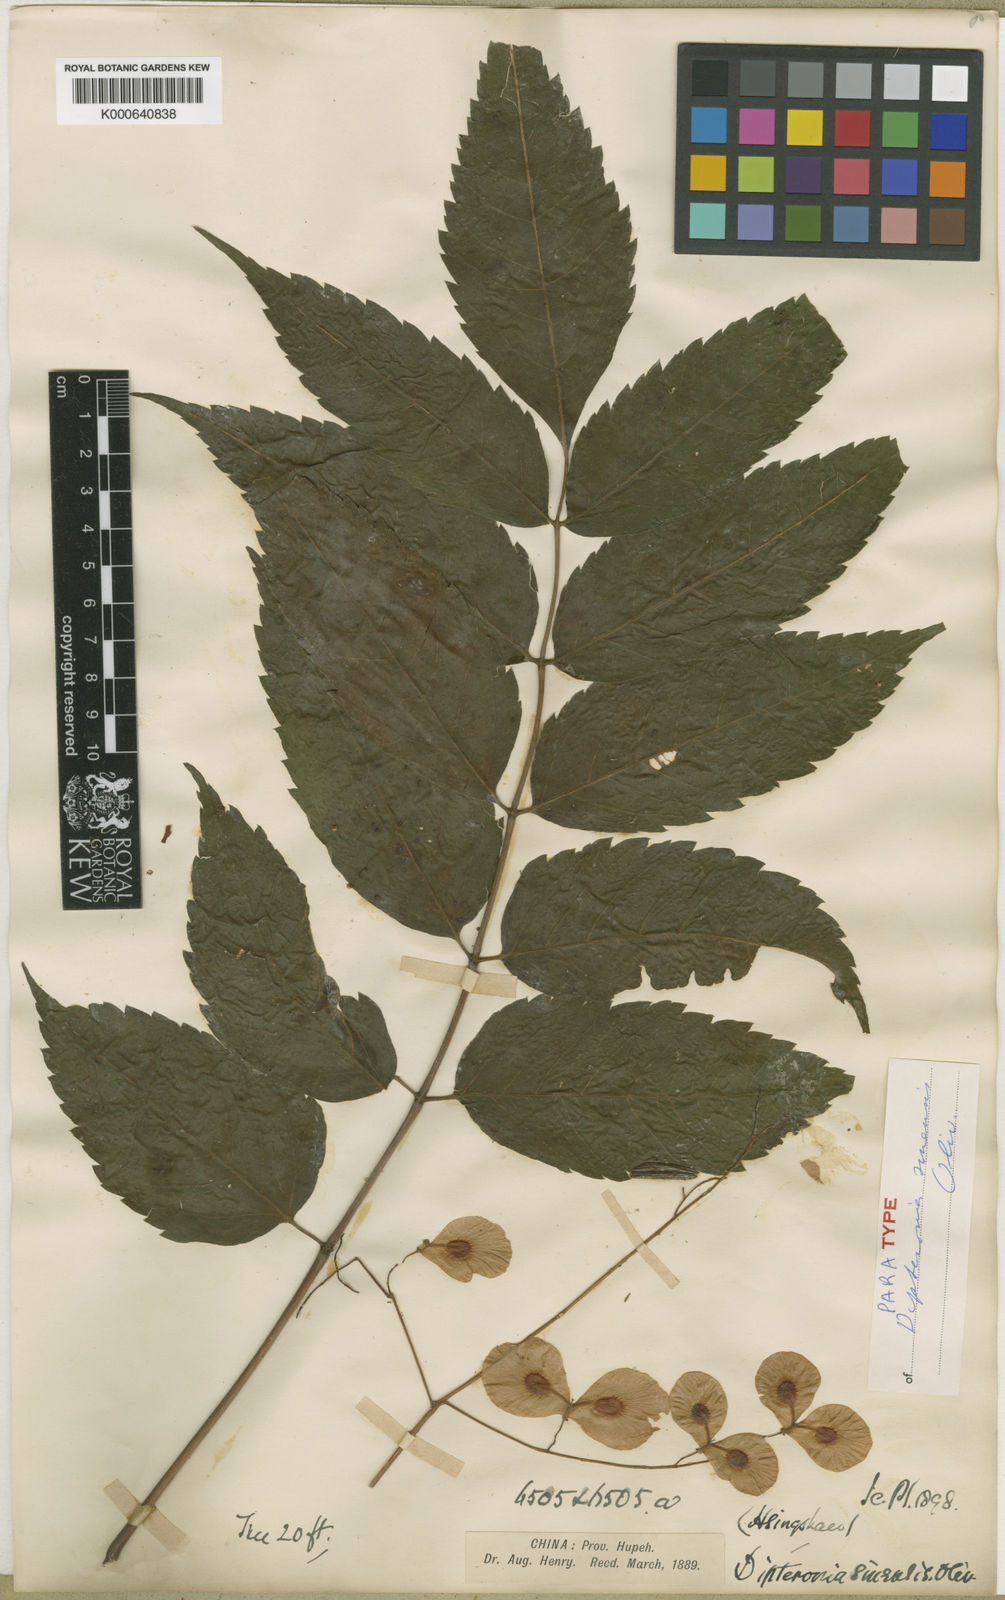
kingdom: Plantae
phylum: Tracheophyta
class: Magnoliopsida
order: Sapindales
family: Sapindaceae
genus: Dipteronia
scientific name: Dipteronia dyeriana
